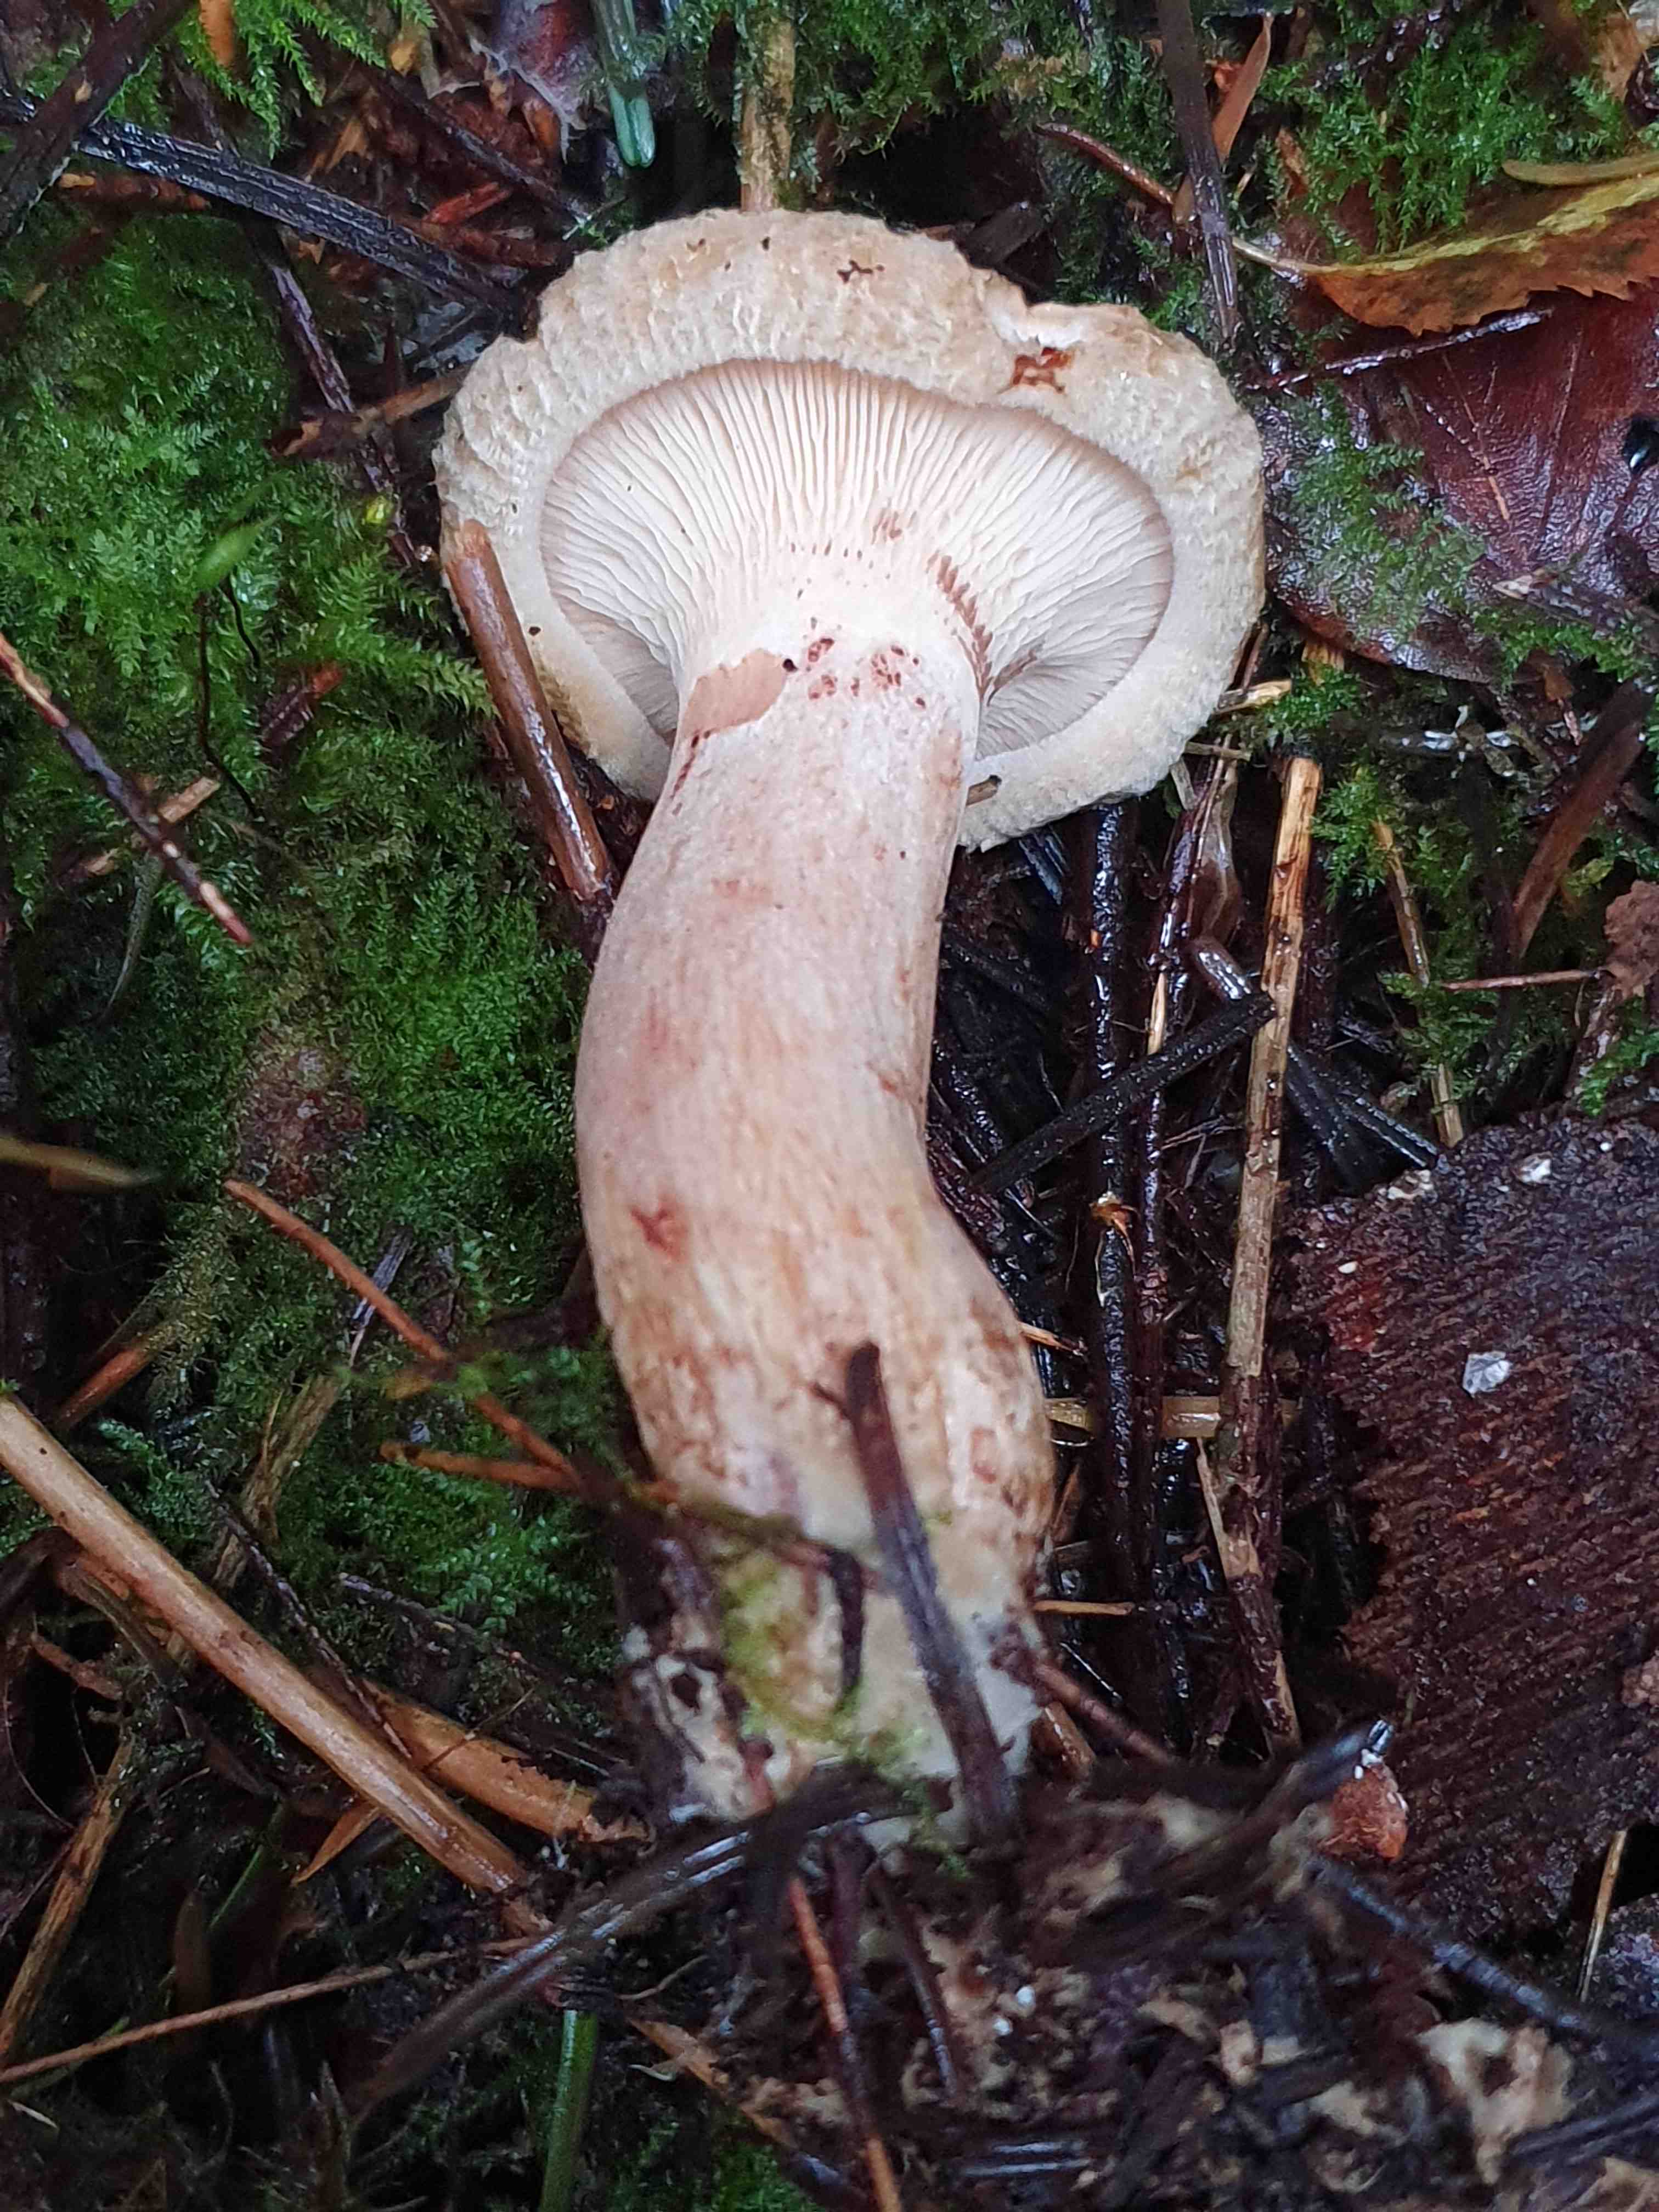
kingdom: Fungi
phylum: Basidiomycota
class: Agaricomycetes
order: Boletales
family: Paxillaceae
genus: Paxillus
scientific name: Paxillus involutus
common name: almindelig netbladhat
